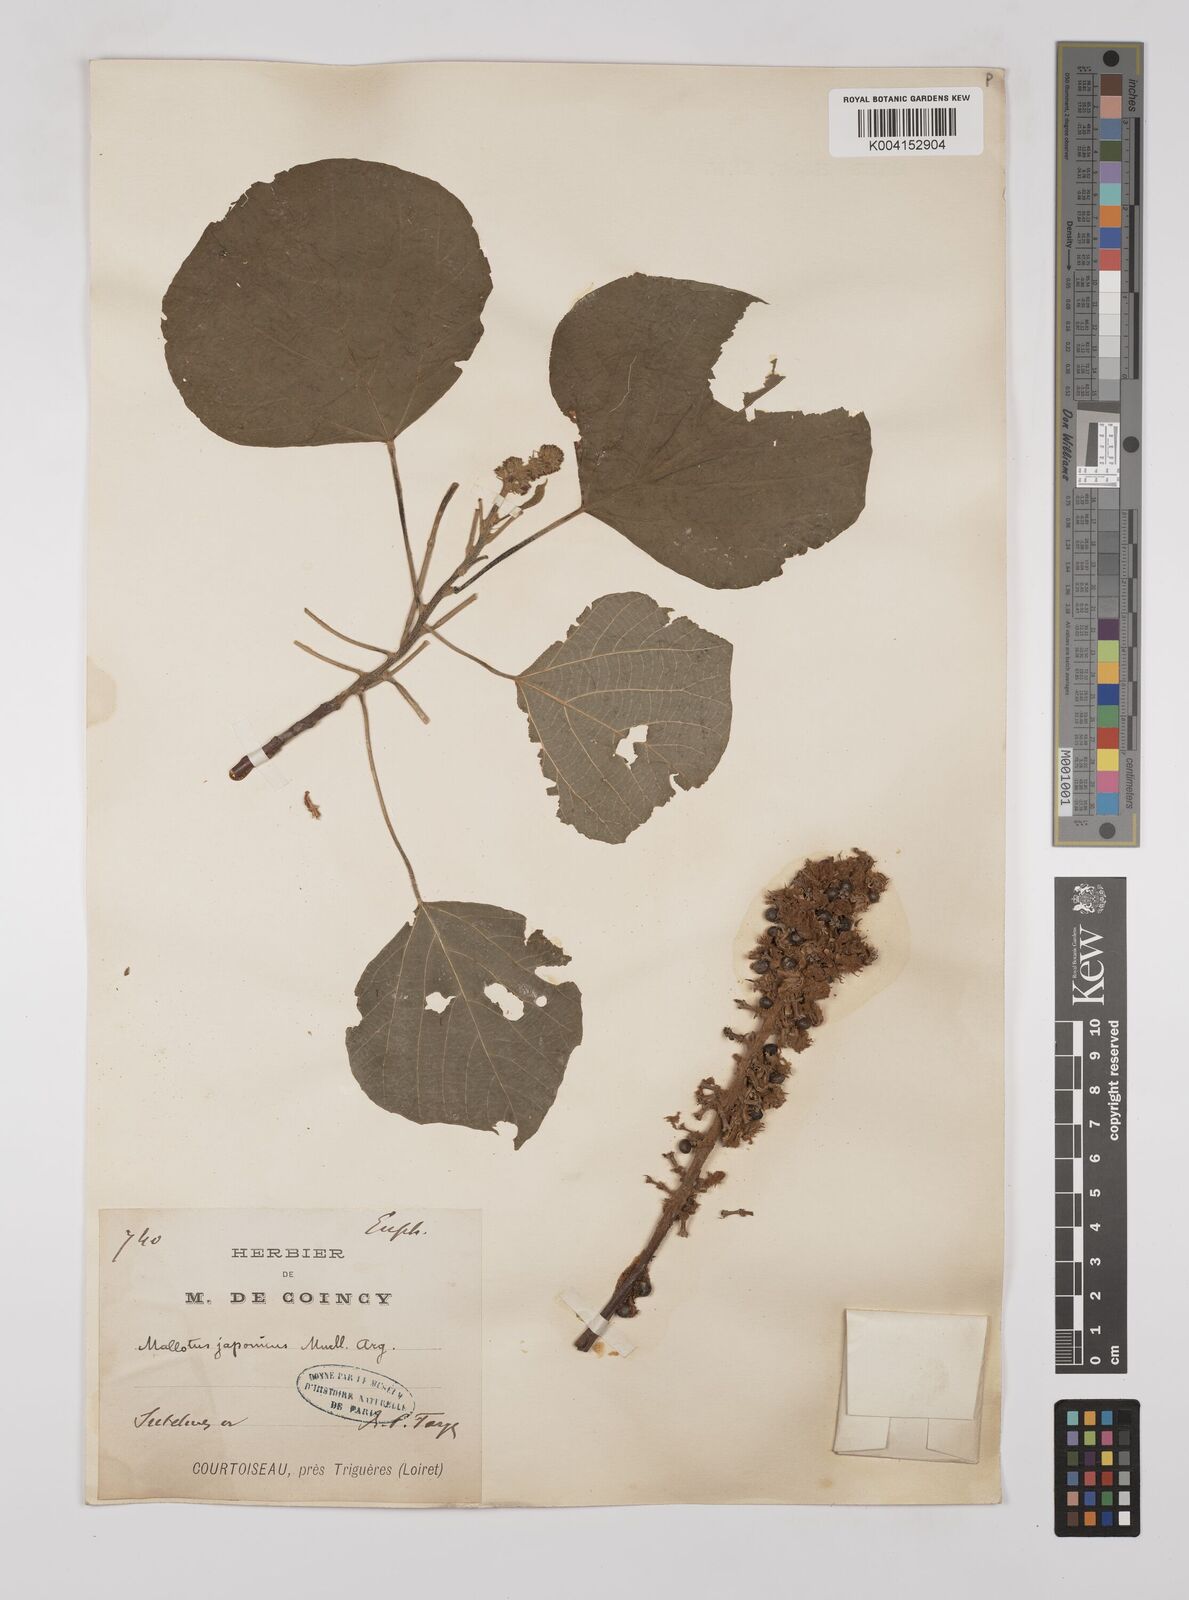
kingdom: Plantae
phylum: Tracheophyta
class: Magnoliopsida
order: Malpighiales
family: Euphorbiaceae
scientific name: Euphorbiaceae
